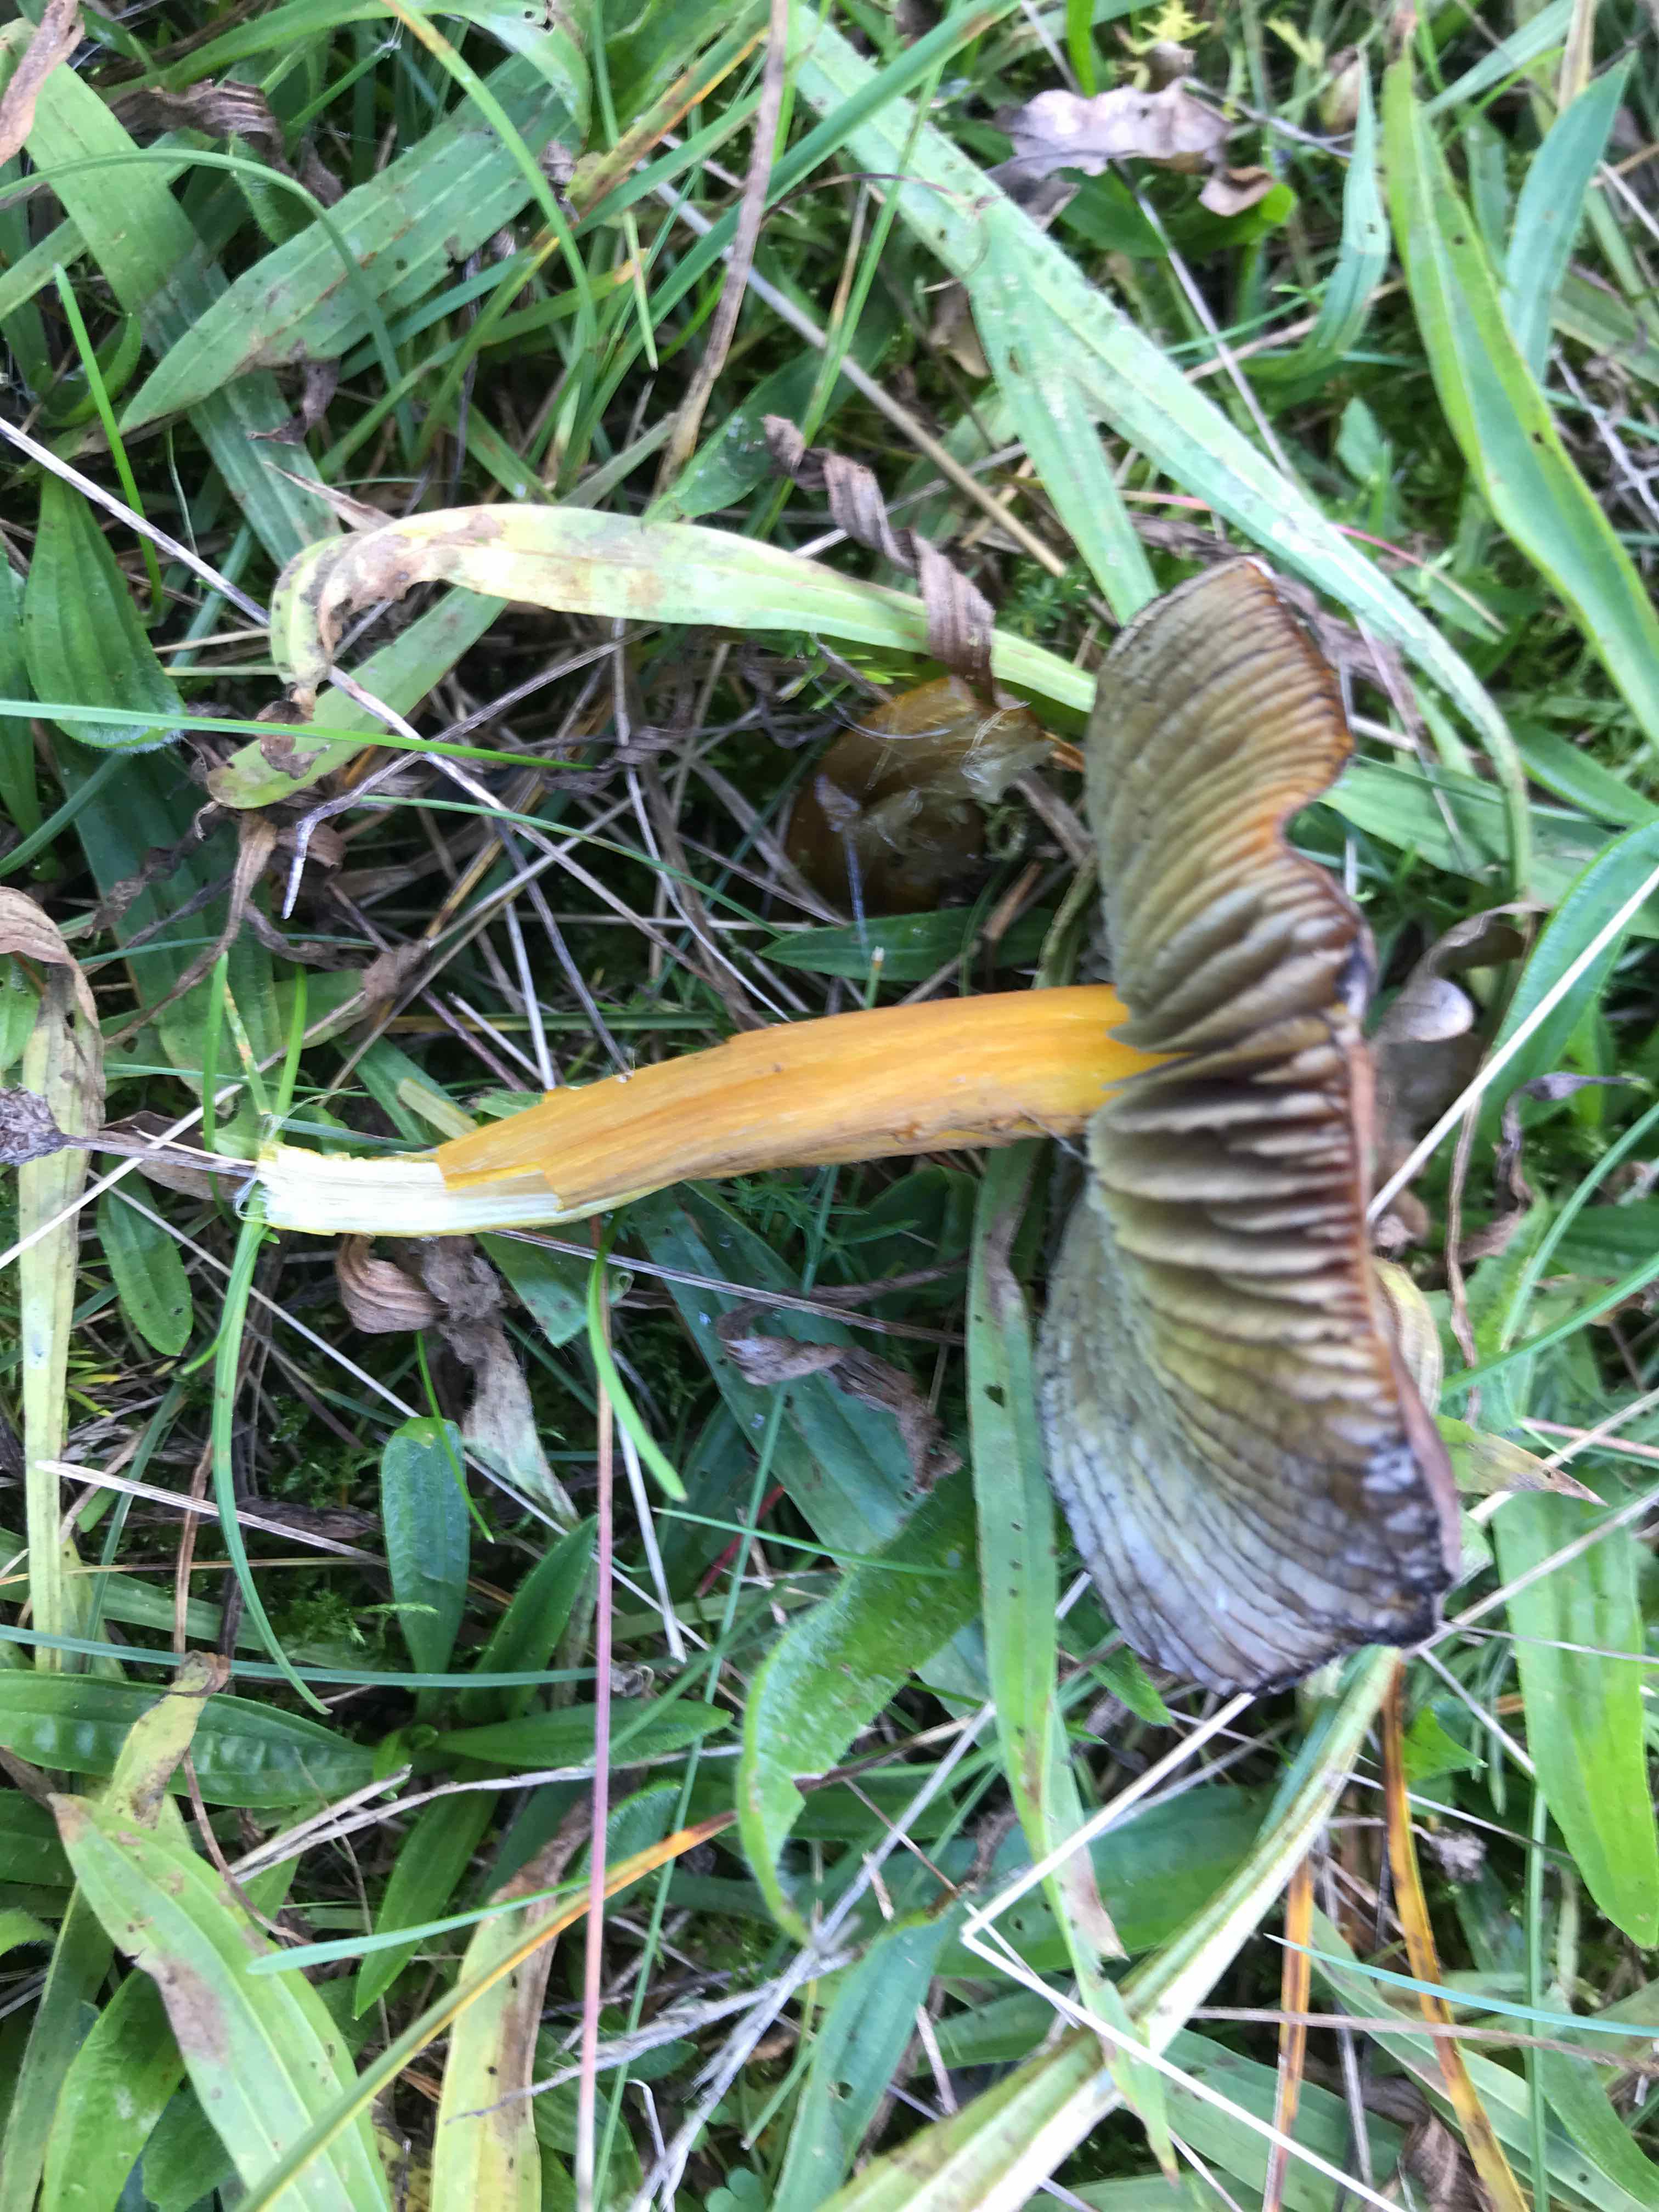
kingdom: Fungi
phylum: Basidiomycota
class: Agaricomycetes
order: Agaricales
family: Hygrophoraceae
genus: Hygrocybe
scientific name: Hygrocybe conica
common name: kegle-vokshat
